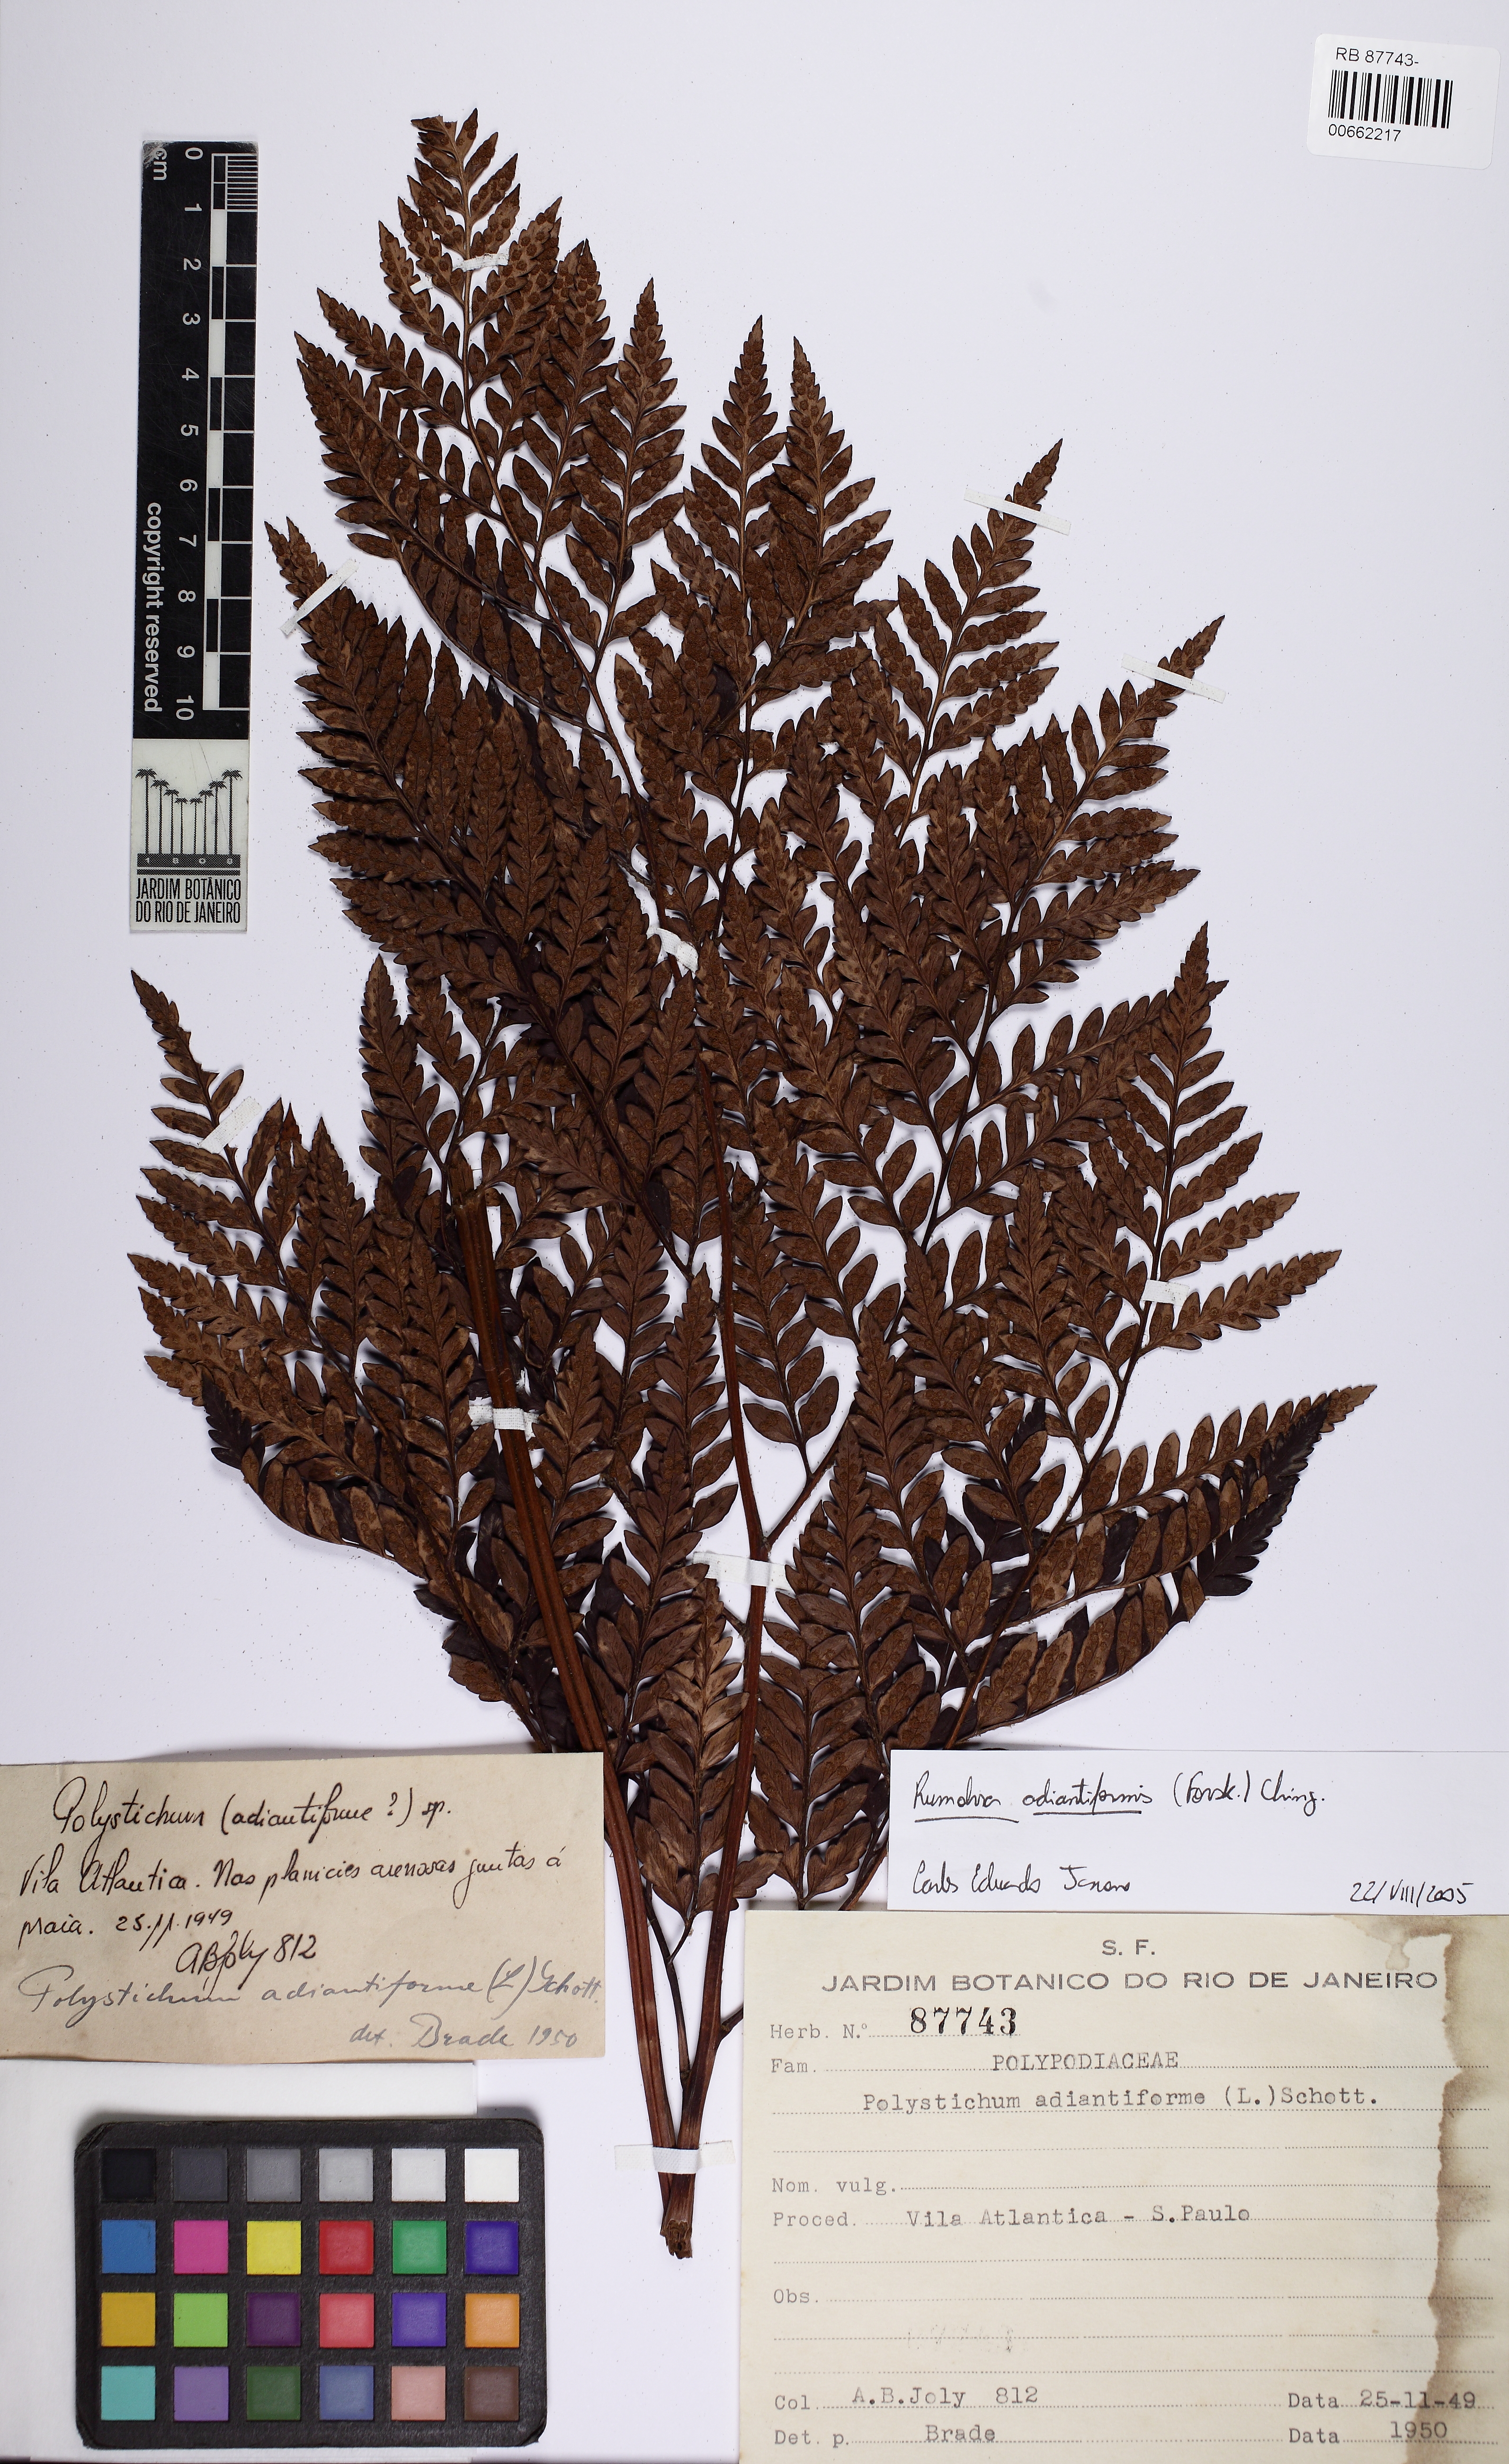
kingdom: Plantae
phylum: Tracheophyta
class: Polypodiopsida
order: Polypodiales
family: Dryopteridaceae
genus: Rumohra
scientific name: Rumohra adiantiformis
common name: Leather fern
